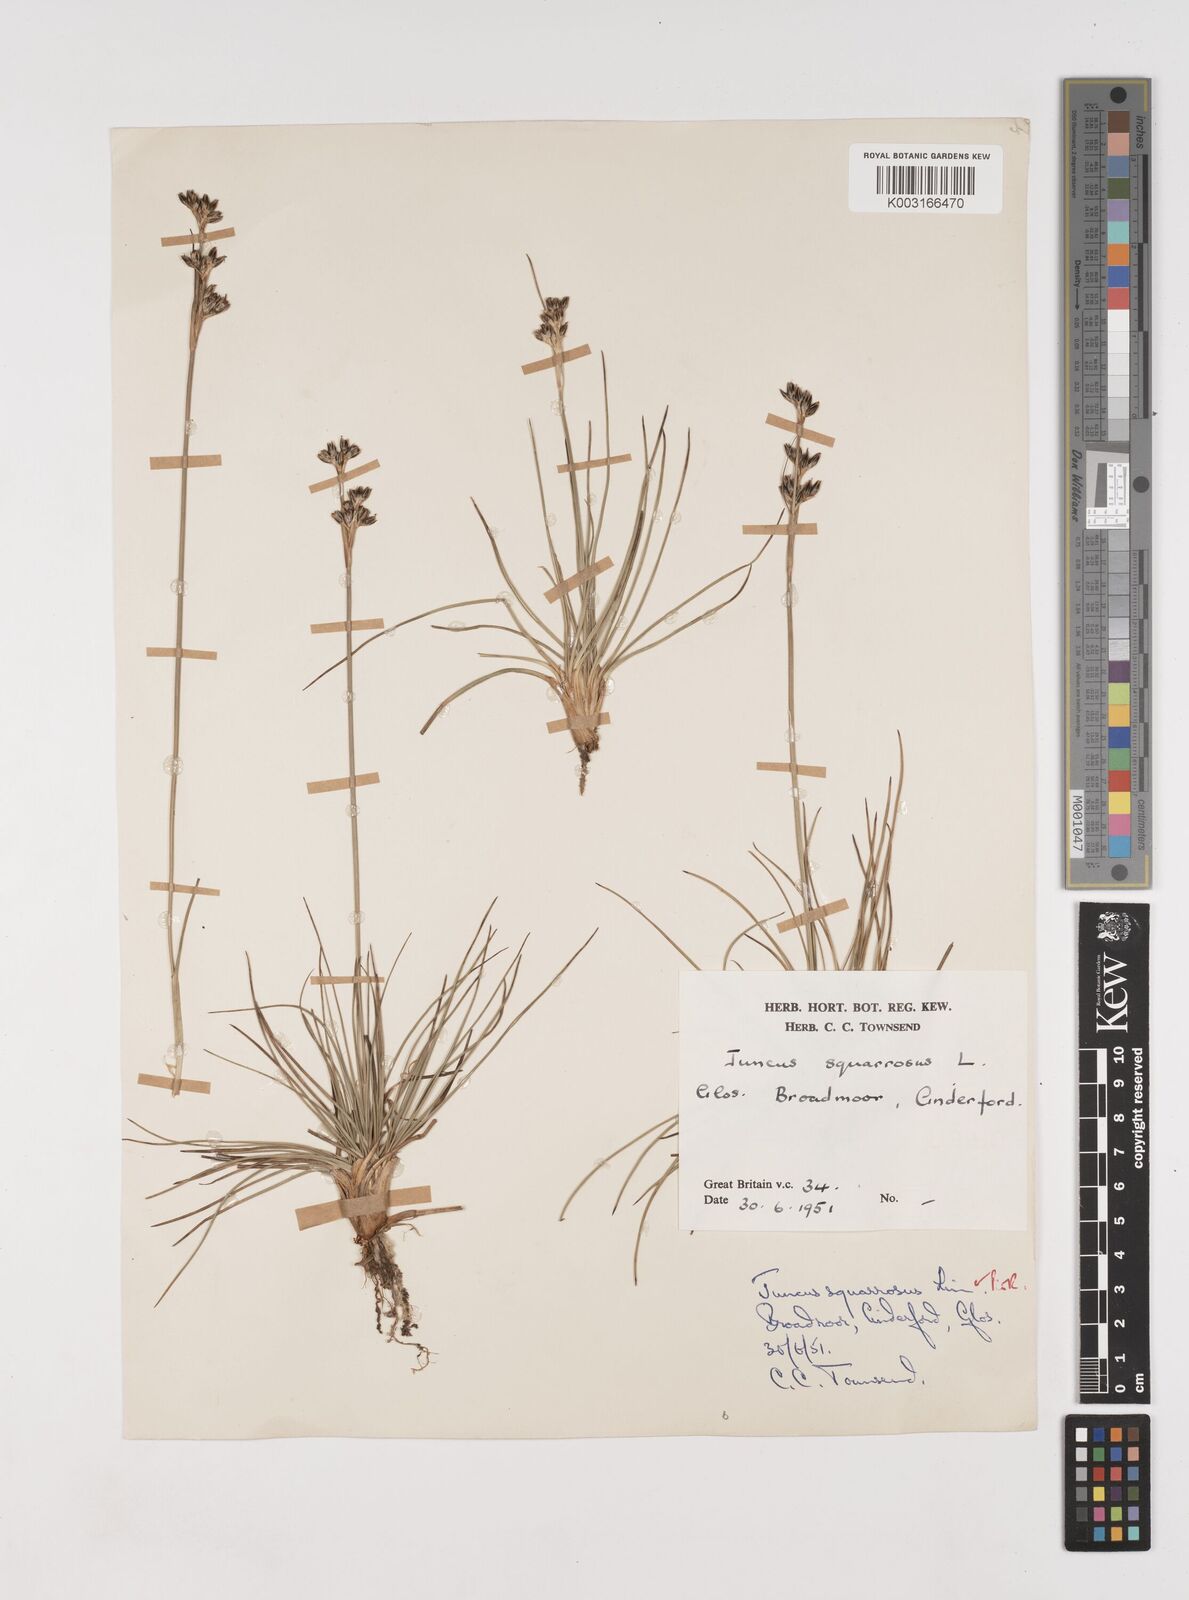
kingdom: Plantae
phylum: Tracheophyta
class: Liliopsida
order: Poales
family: Juncaceae
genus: Juncus
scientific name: Juncus squarrosus
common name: Heath rush
